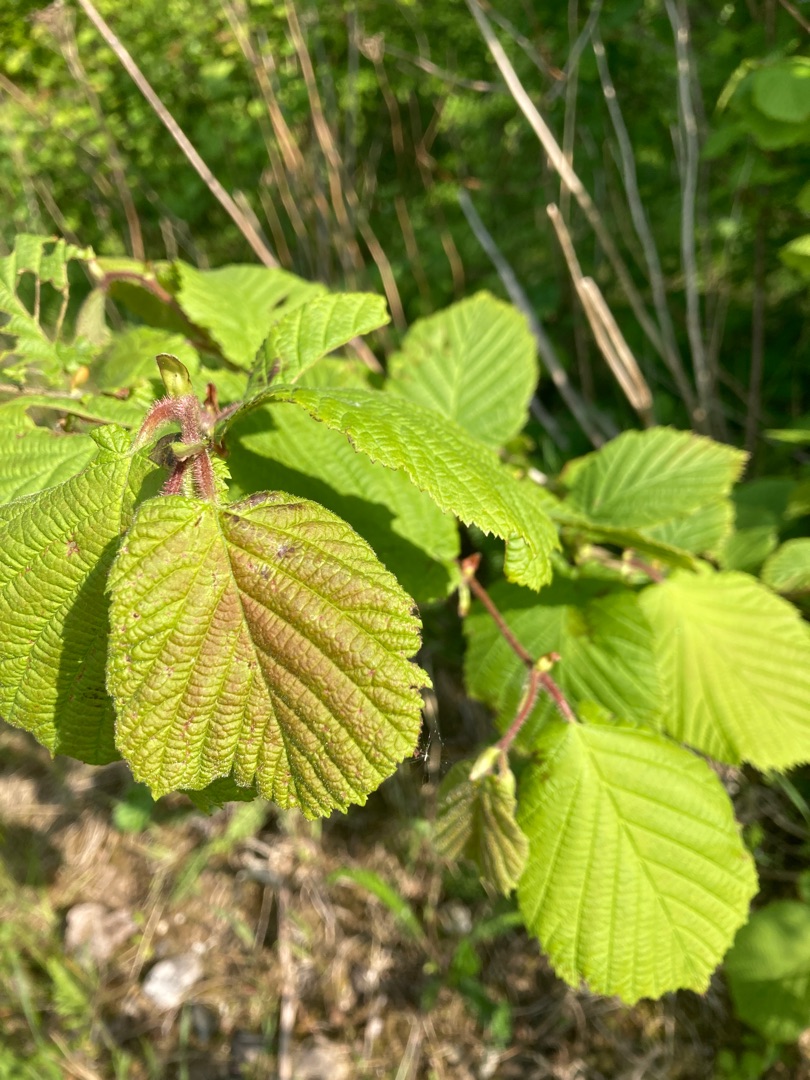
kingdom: Plantae
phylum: Tracheophyta
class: Magnoliopsida
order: Fagales
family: Betulaceae
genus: Corylus
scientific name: Corylus avellana
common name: Hassel
